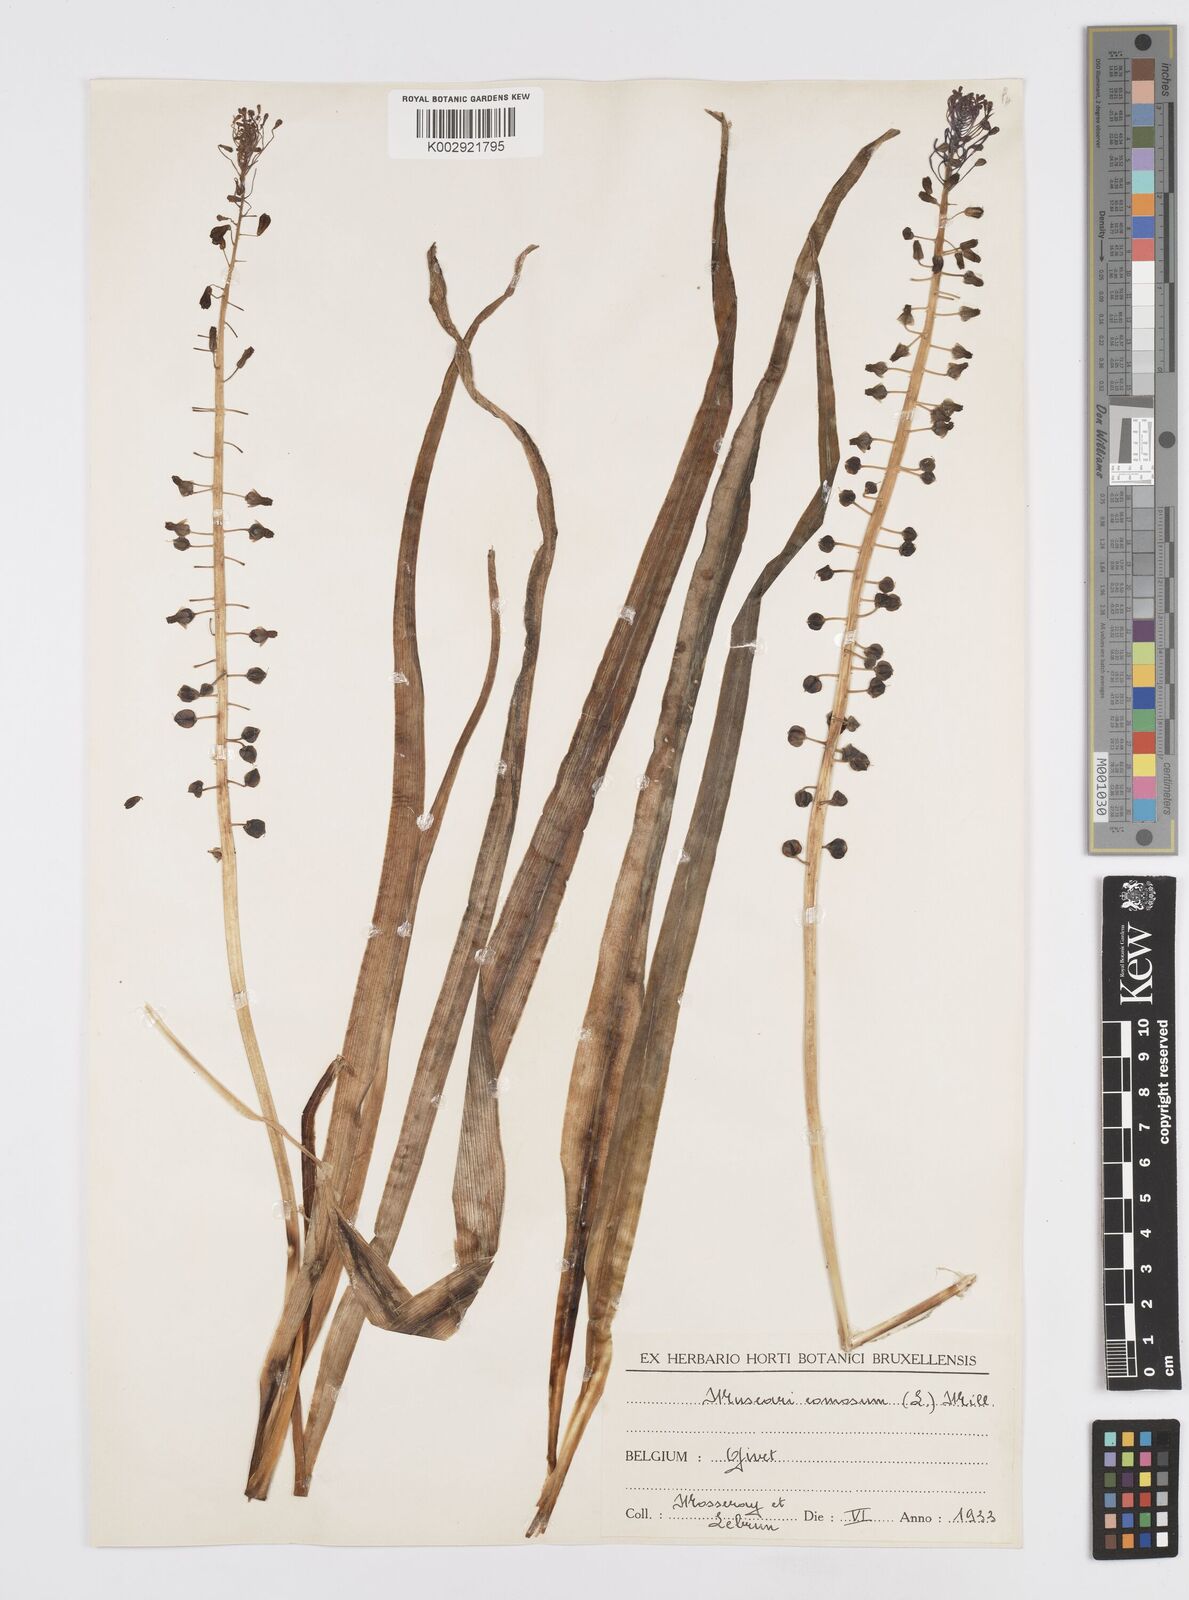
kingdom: Plantae
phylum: Tracheophyta
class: Liliopsida
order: Asparagales
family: Asparagaceae
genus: Muscari
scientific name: Muscari comosum
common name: Tassel hyacinth
